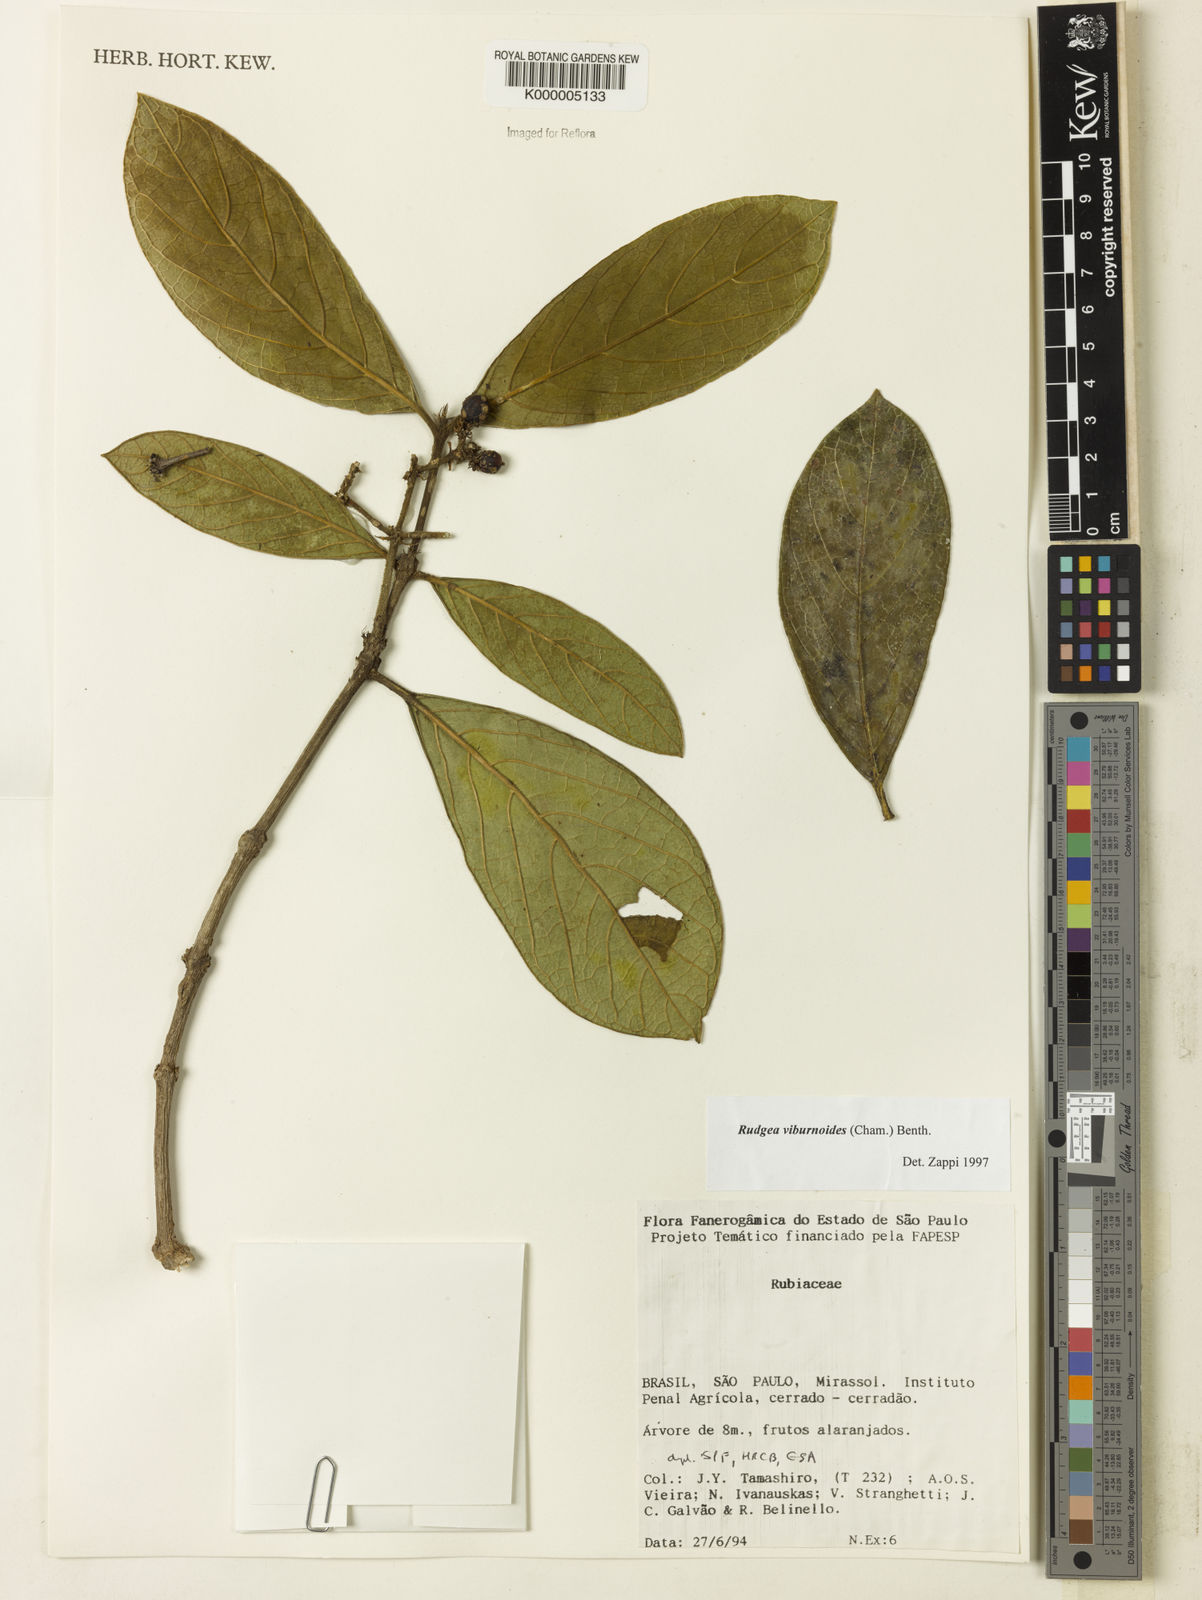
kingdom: Plantae
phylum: Tracheophyta
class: Magnoliopsida
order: Gentianales
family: Rubiaceae
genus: Rudgea
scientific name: Rudgea viburnoides
